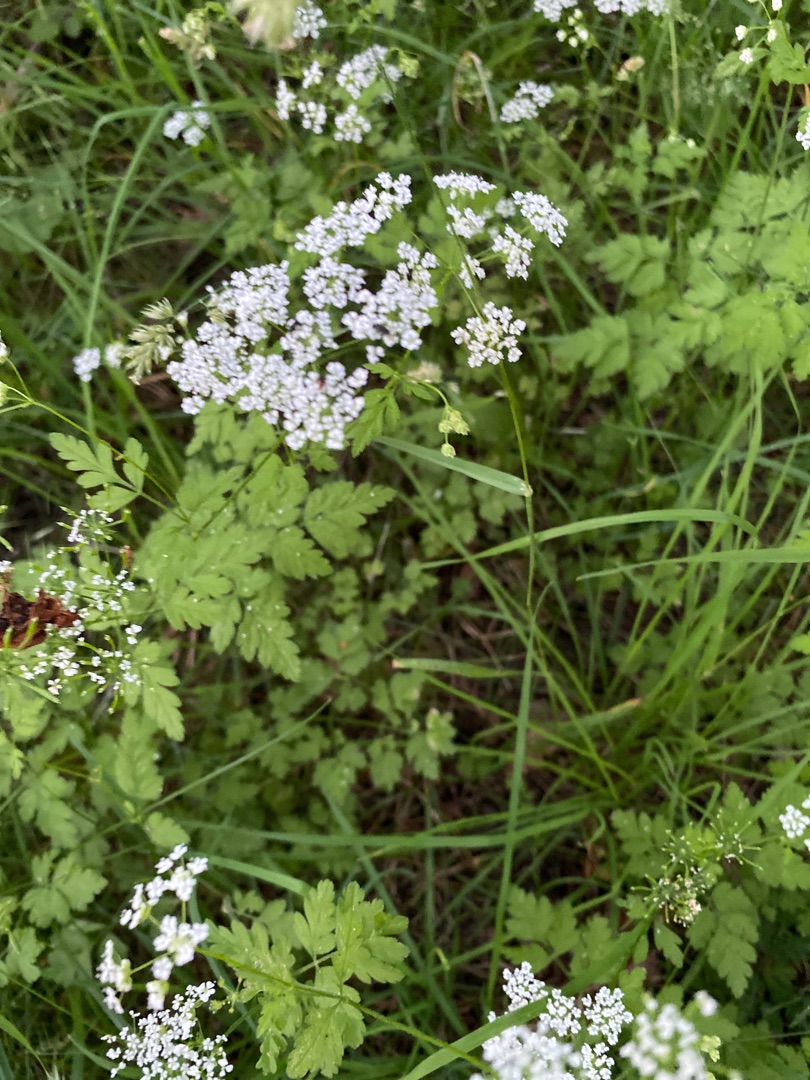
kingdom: Plantae
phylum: Tracheophyta
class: Magnoliopsida
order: Apiales
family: Apiaceae
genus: Chaerophyllum
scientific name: Chaerophyllum temulum
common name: Almindelig hulsvøb
